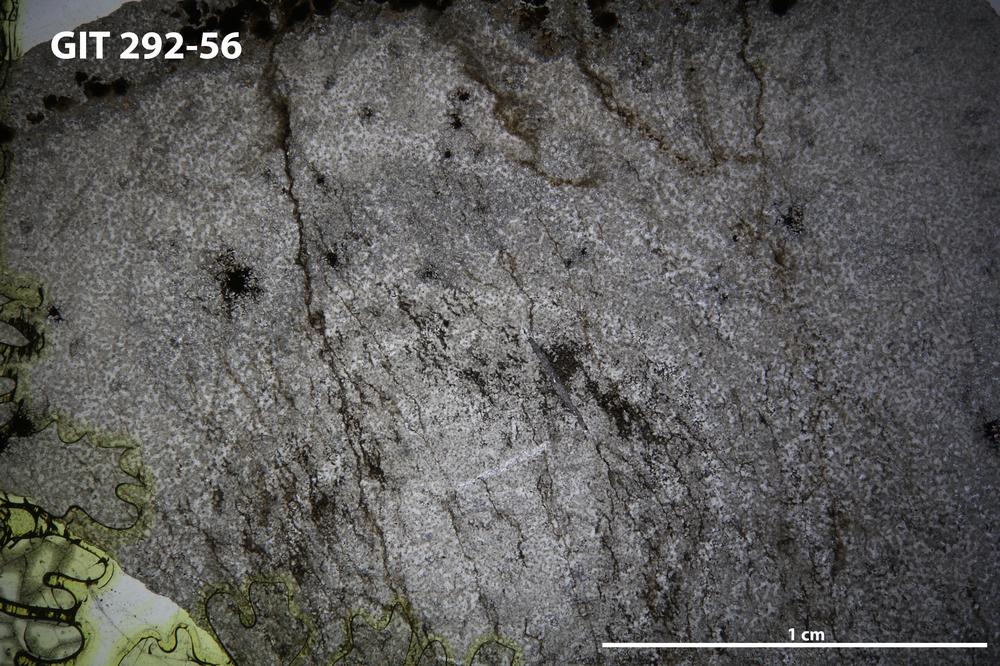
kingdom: Animalia
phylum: Porifera
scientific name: Porifera
